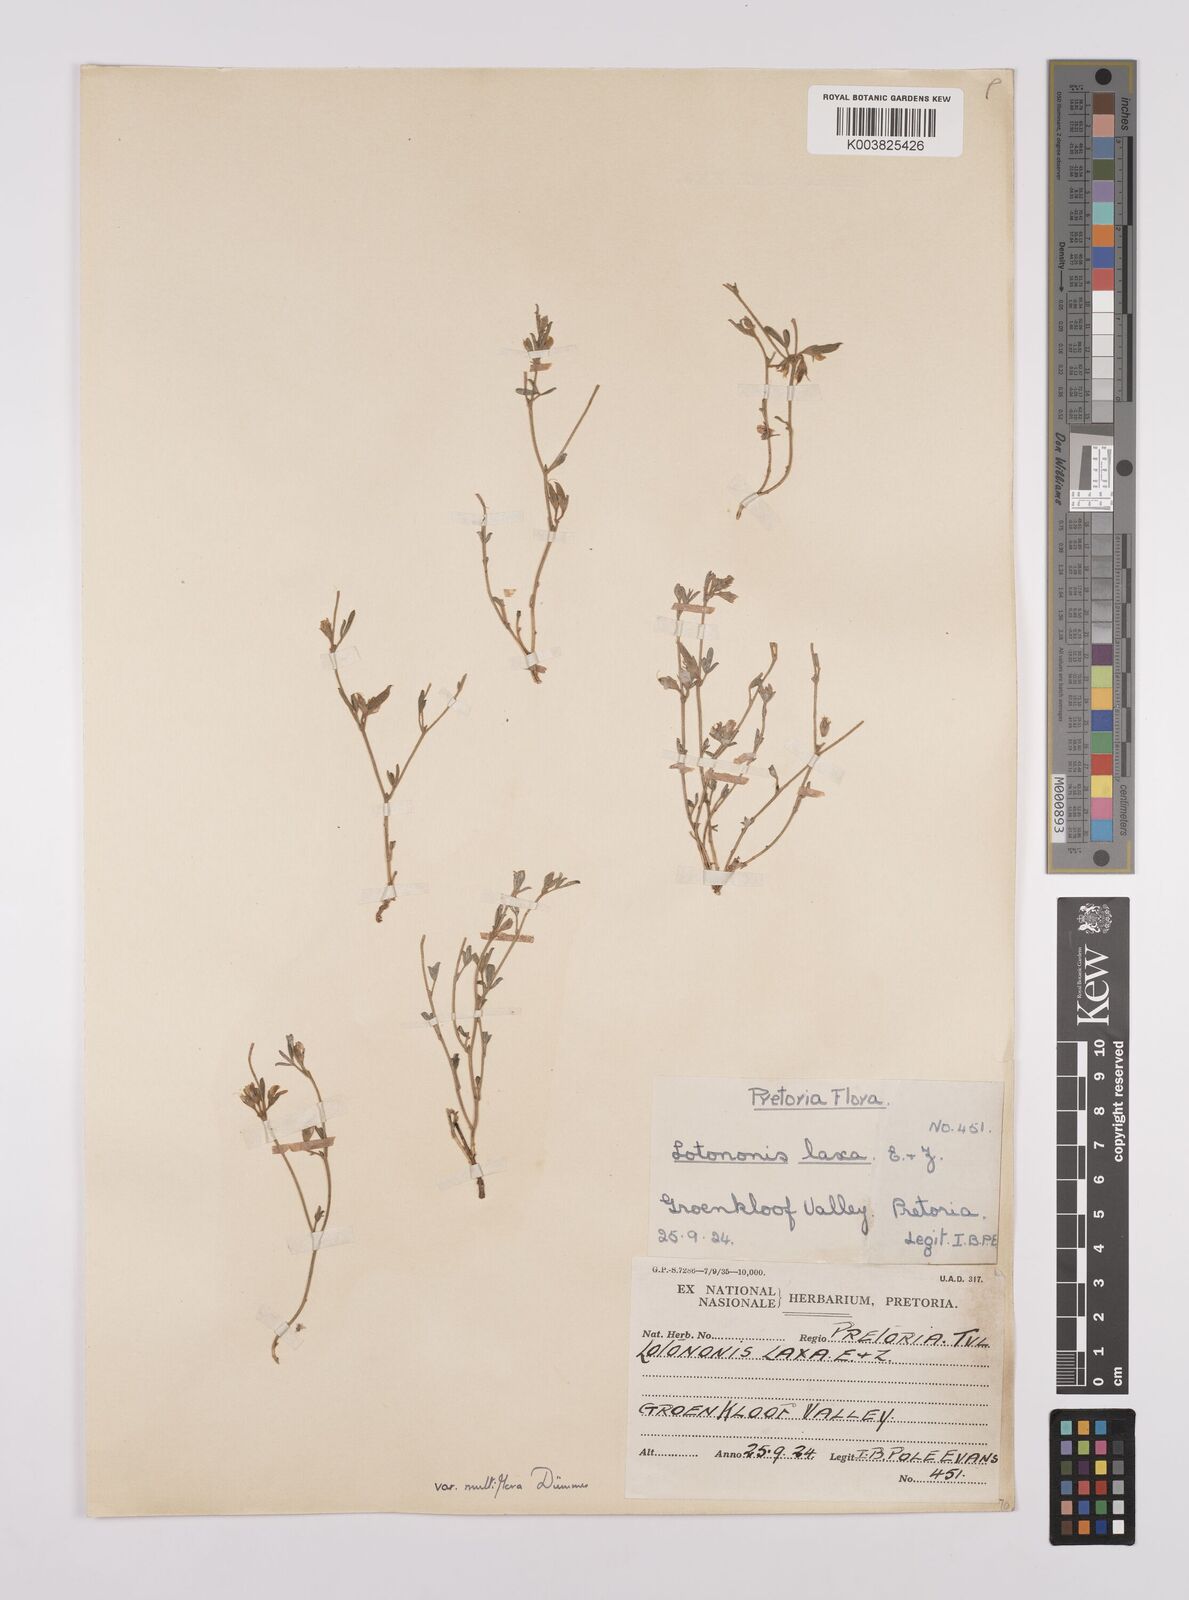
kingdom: Plantae
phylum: Tracheophyta
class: Magnoliopsida
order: Fabales
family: Fabaceae
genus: Lotononis
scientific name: Lotononis laxa
